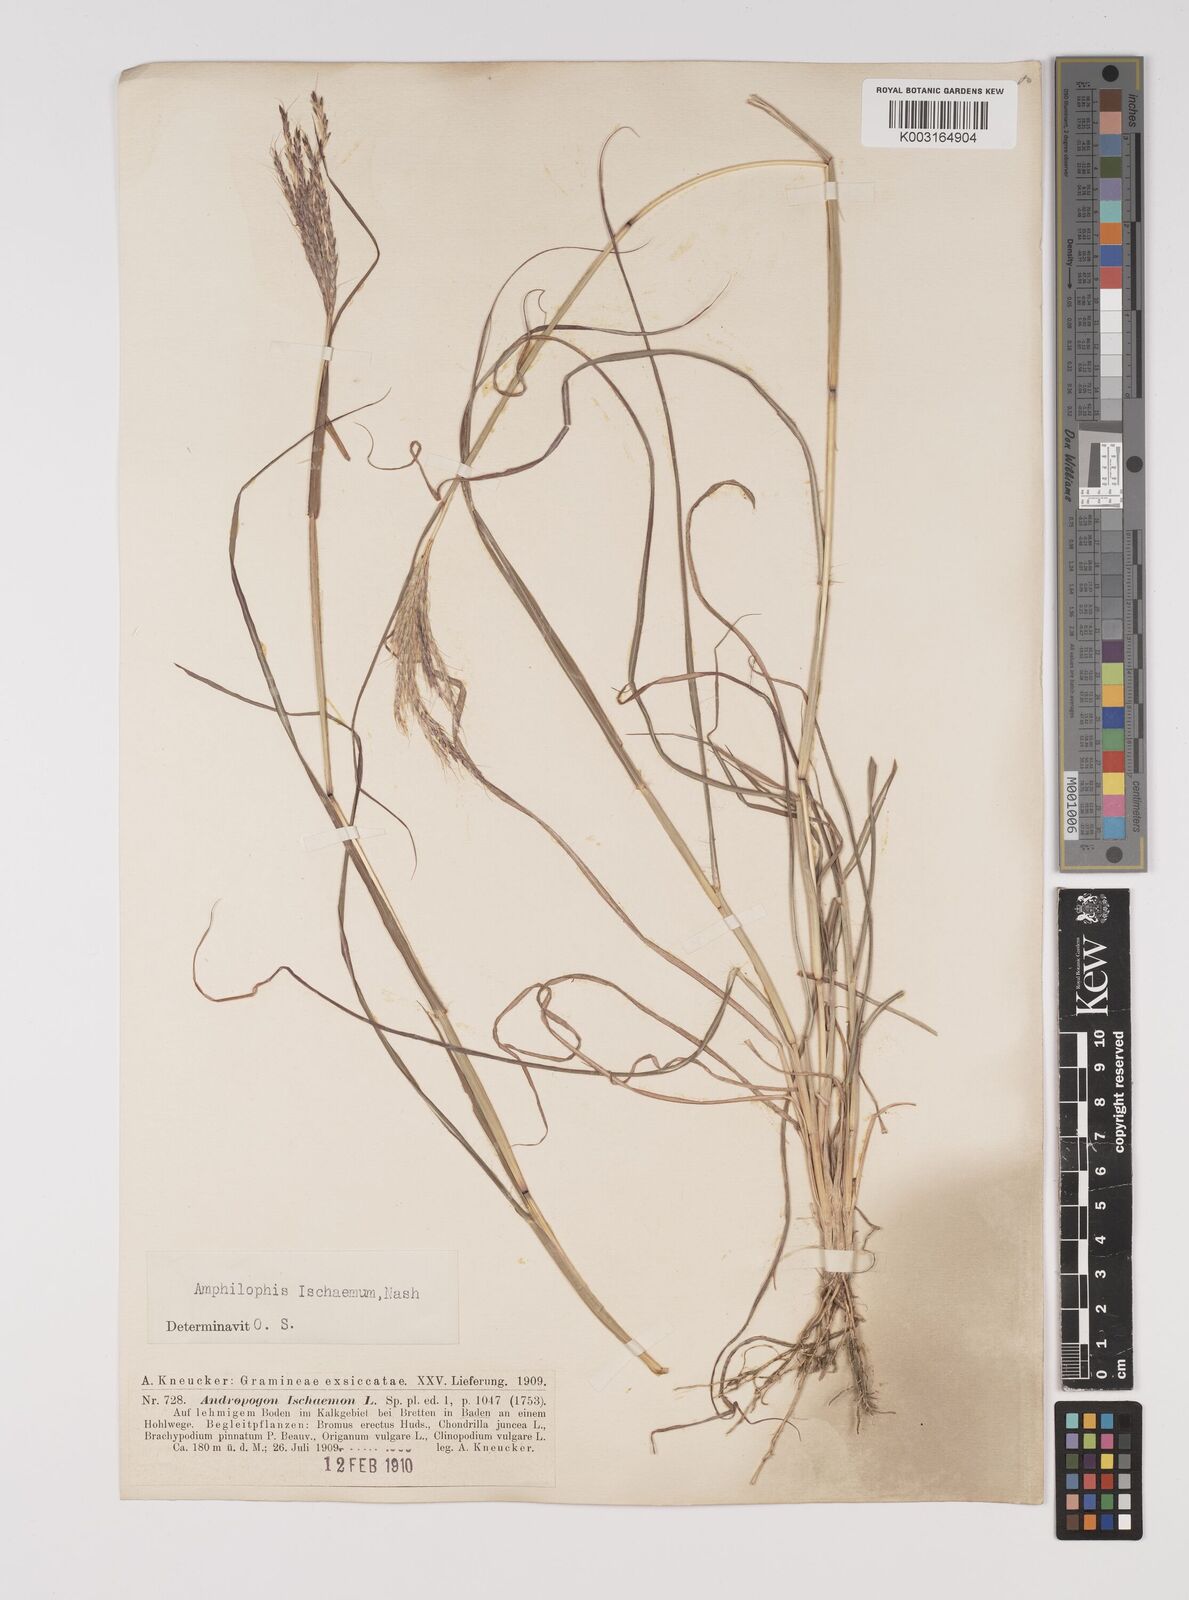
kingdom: Plantae
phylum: Tracheophyta
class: Liliopsida
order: Poales
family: Poaceae
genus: Bothriochloa
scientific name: Bothriochloa ischaemum
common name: Yellow bluestem
